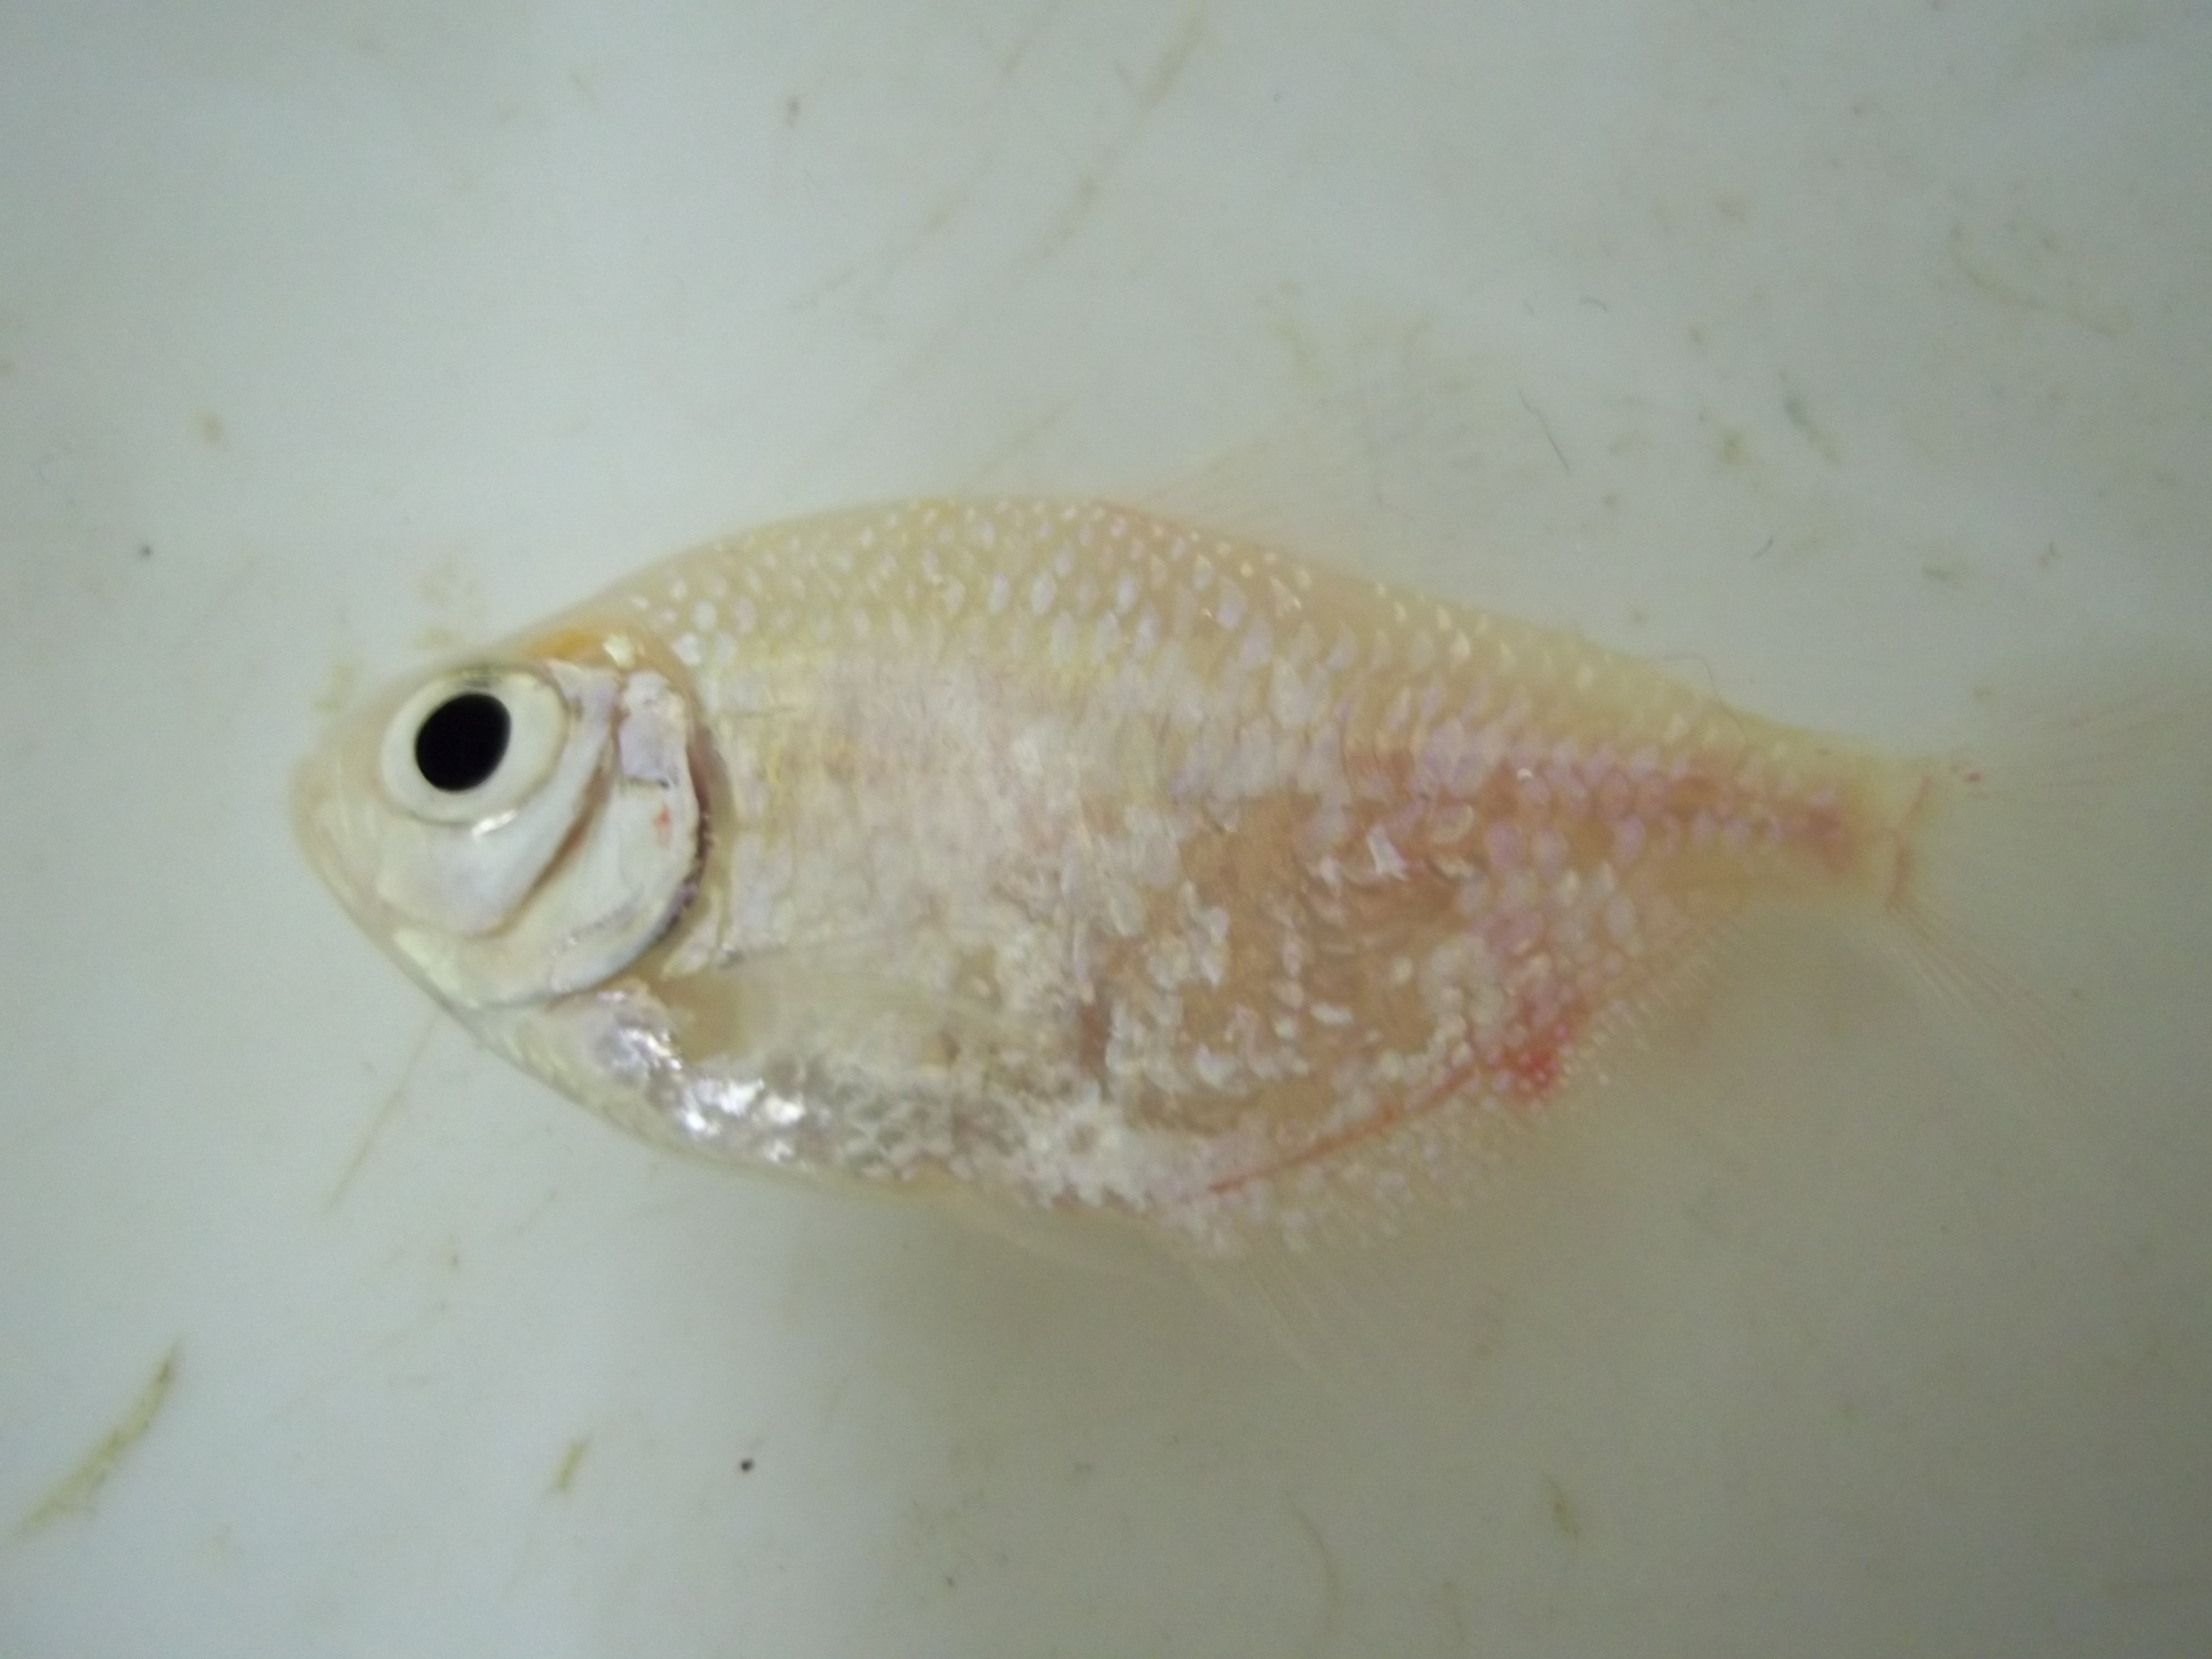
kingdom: Animalia
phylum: Chordata
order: Characiformes
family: Characidae
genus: Gymnocorymbus
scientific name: Gymnocorymbus ternetzi
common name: Black tetra
